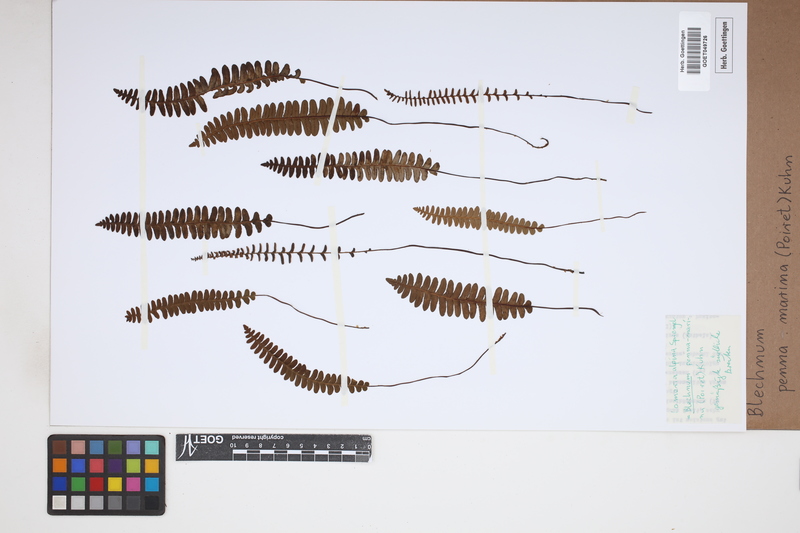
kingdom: Plantae
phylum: Tracheophyta
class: Polypodiopsida
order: Polypodiales
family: Blechnaceae
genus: Austroblechnum
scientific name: Austroblechnum penna-marina
